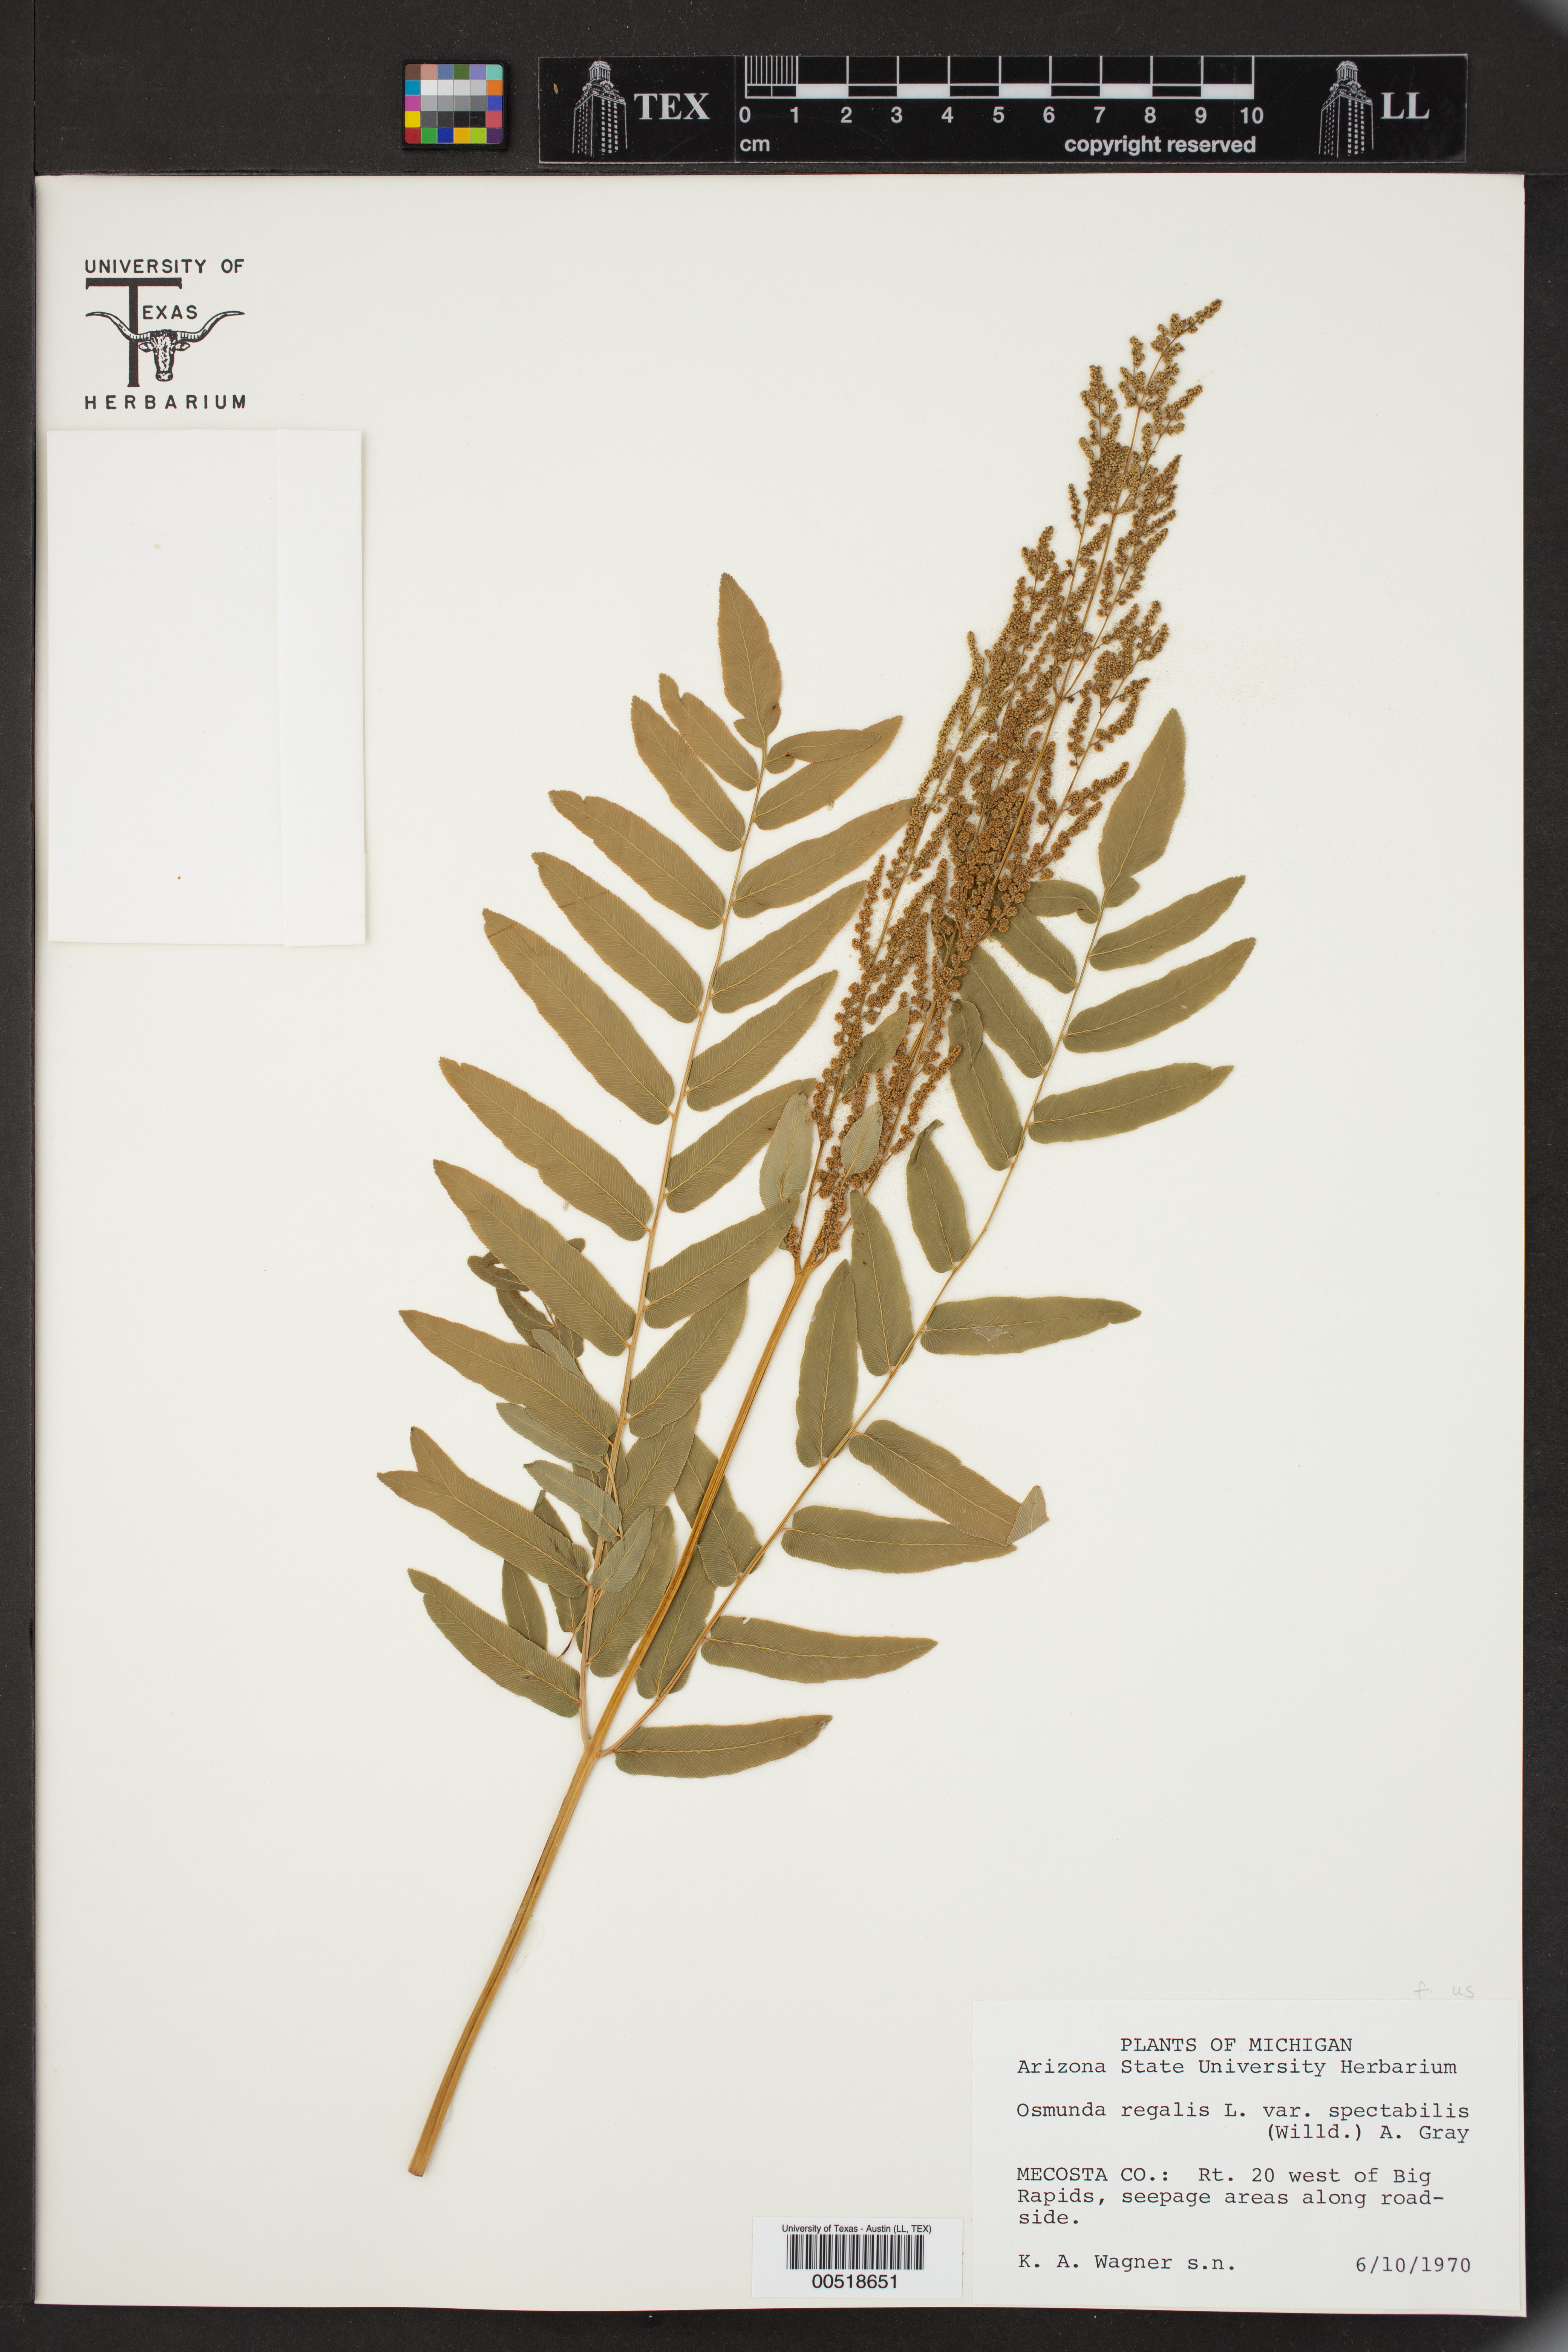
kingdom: Plantae
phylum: Tracheophyta
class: Polypodiopsida
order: Osmundales
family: Osmundaceae
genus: Osmunda
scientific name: Osmunda spectabilis
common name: American royal fern
